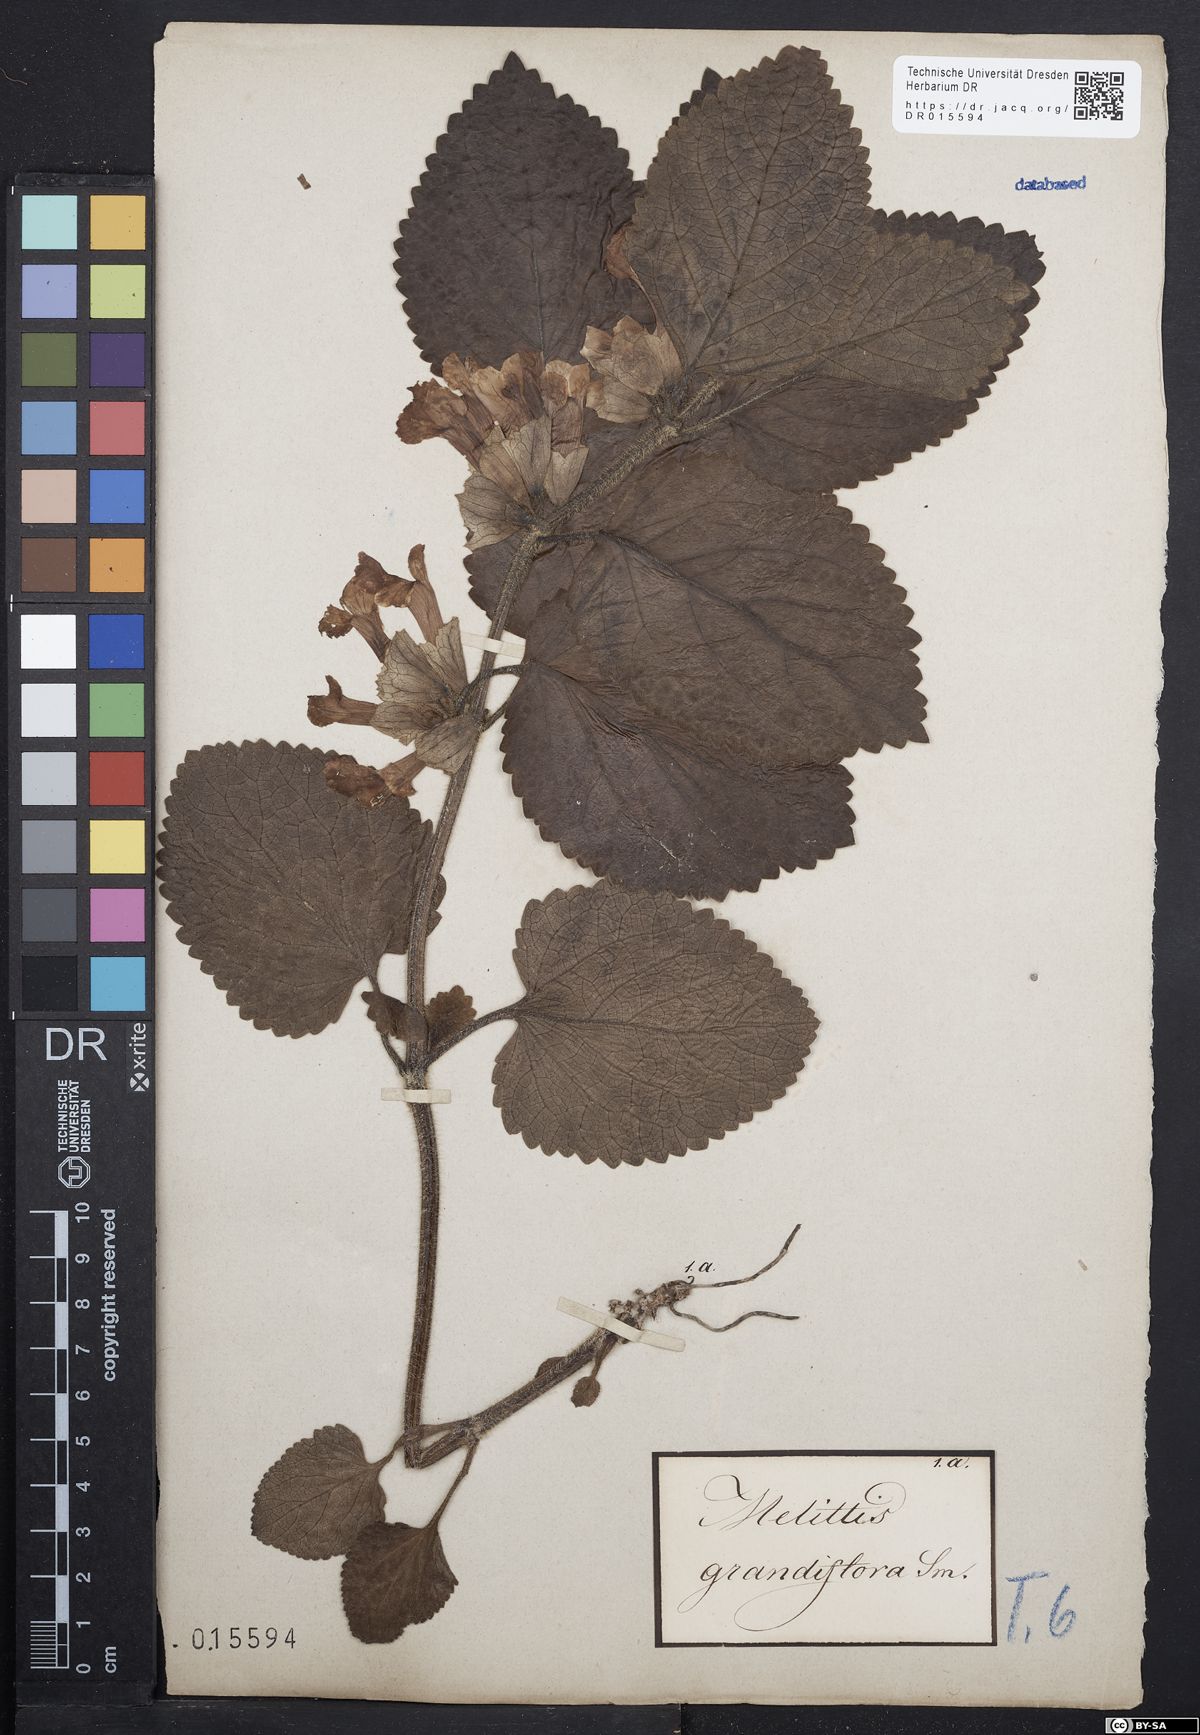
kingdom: Plantae
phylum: Tracheophyta
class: Magnoliopsida
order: Lamiales
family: Lamiaceae
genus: Melittis
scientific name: Melittis melissophyllum
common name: Bastard balm
